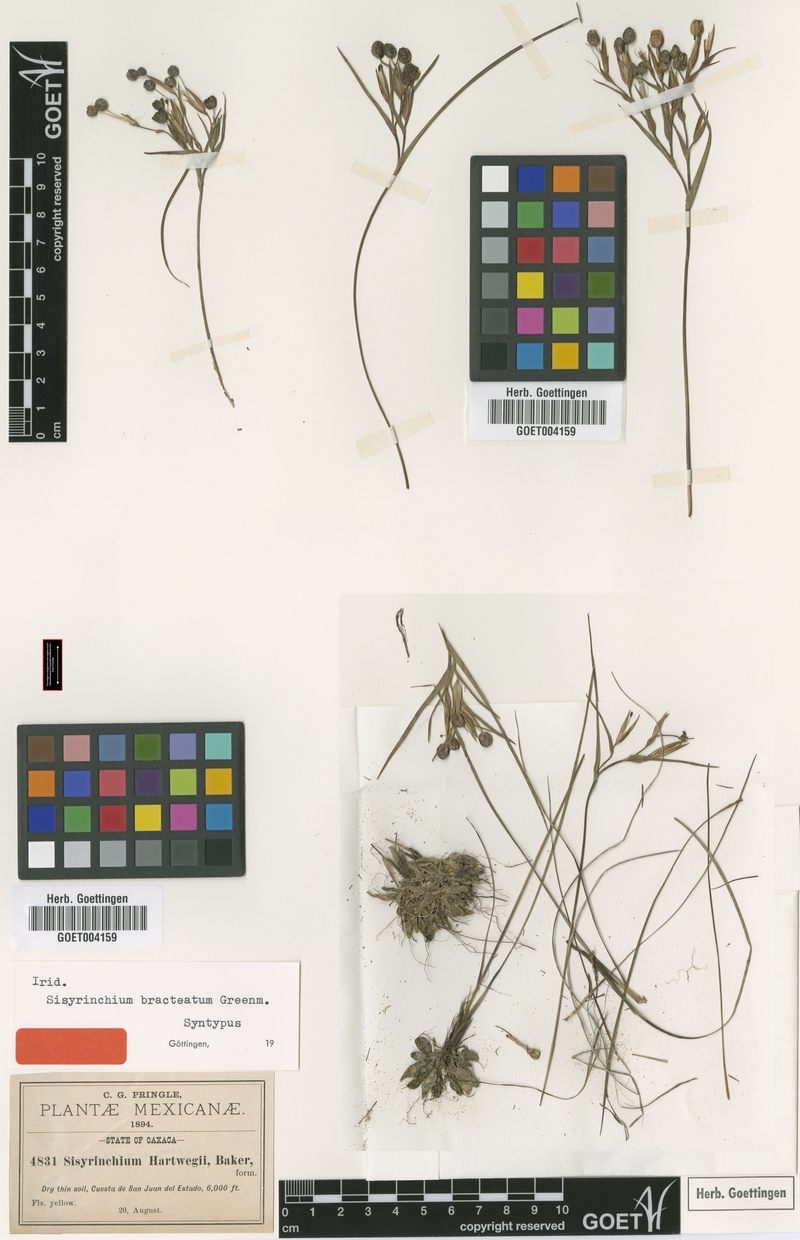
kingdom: Plantae
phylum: Tracheophyta
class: Liliopsida
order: Asparagales
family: Iridaceae
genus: Sisyrinchium
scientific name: Sisyrinchium tenuifolium
